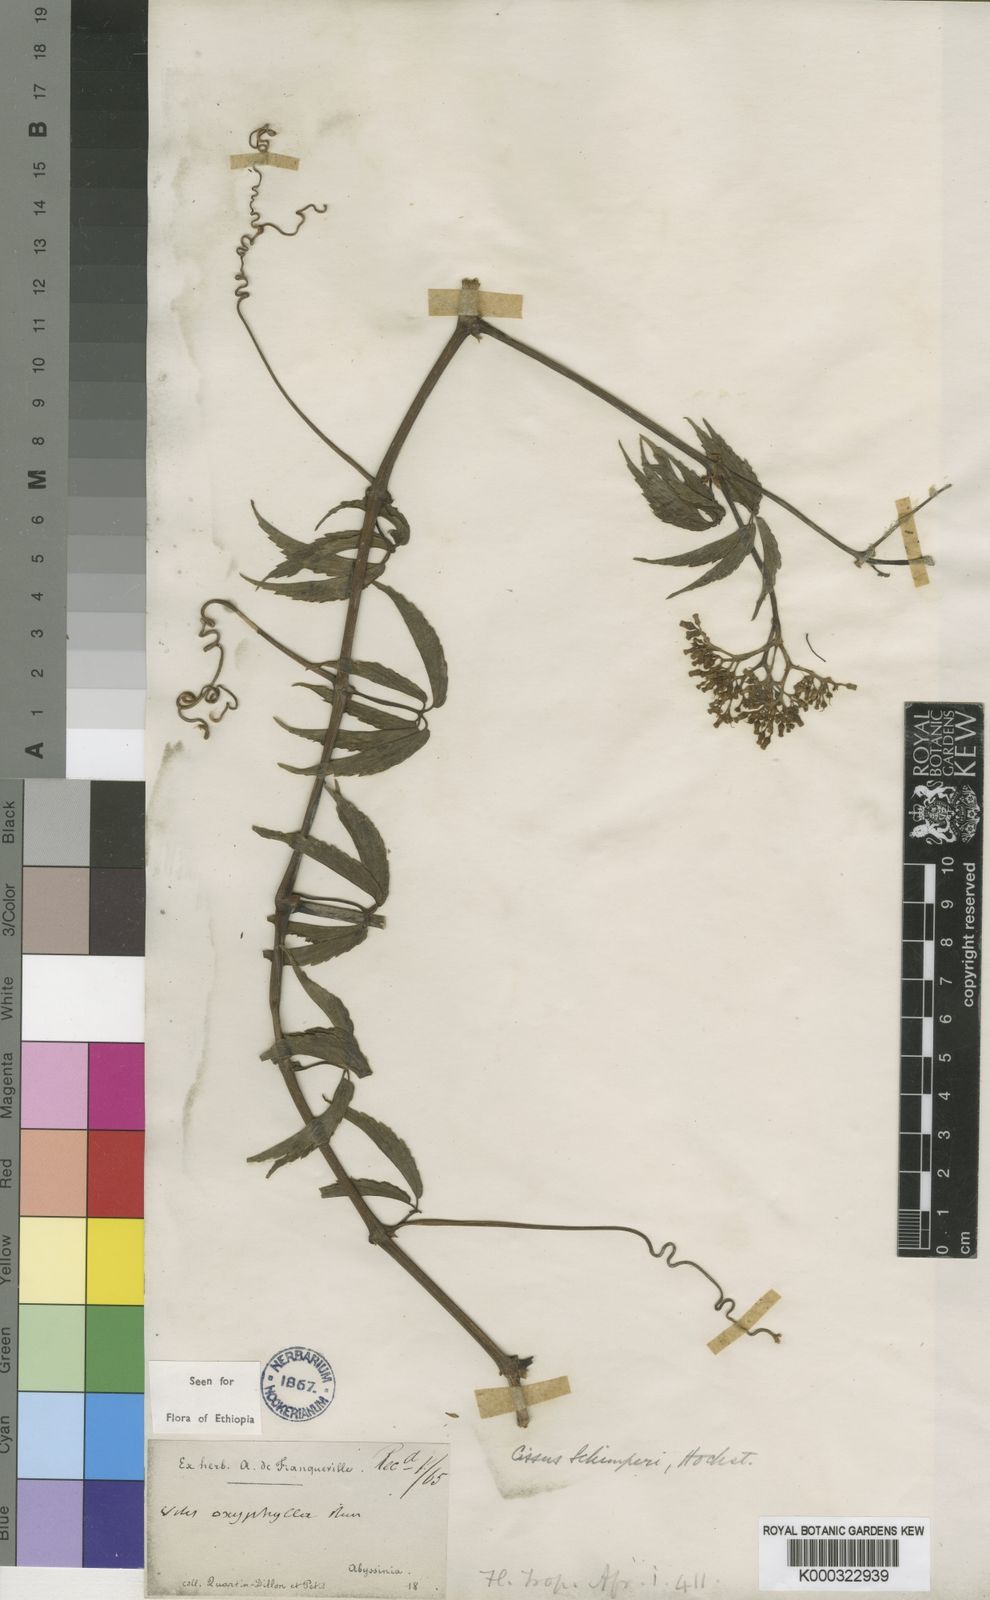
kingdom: Plantae
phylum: Tracheophyta
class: Magnoliopsida
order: Vitales
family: Vitaceae
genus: Cyphostemma
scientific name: Cyphostemma oxyphyllum
